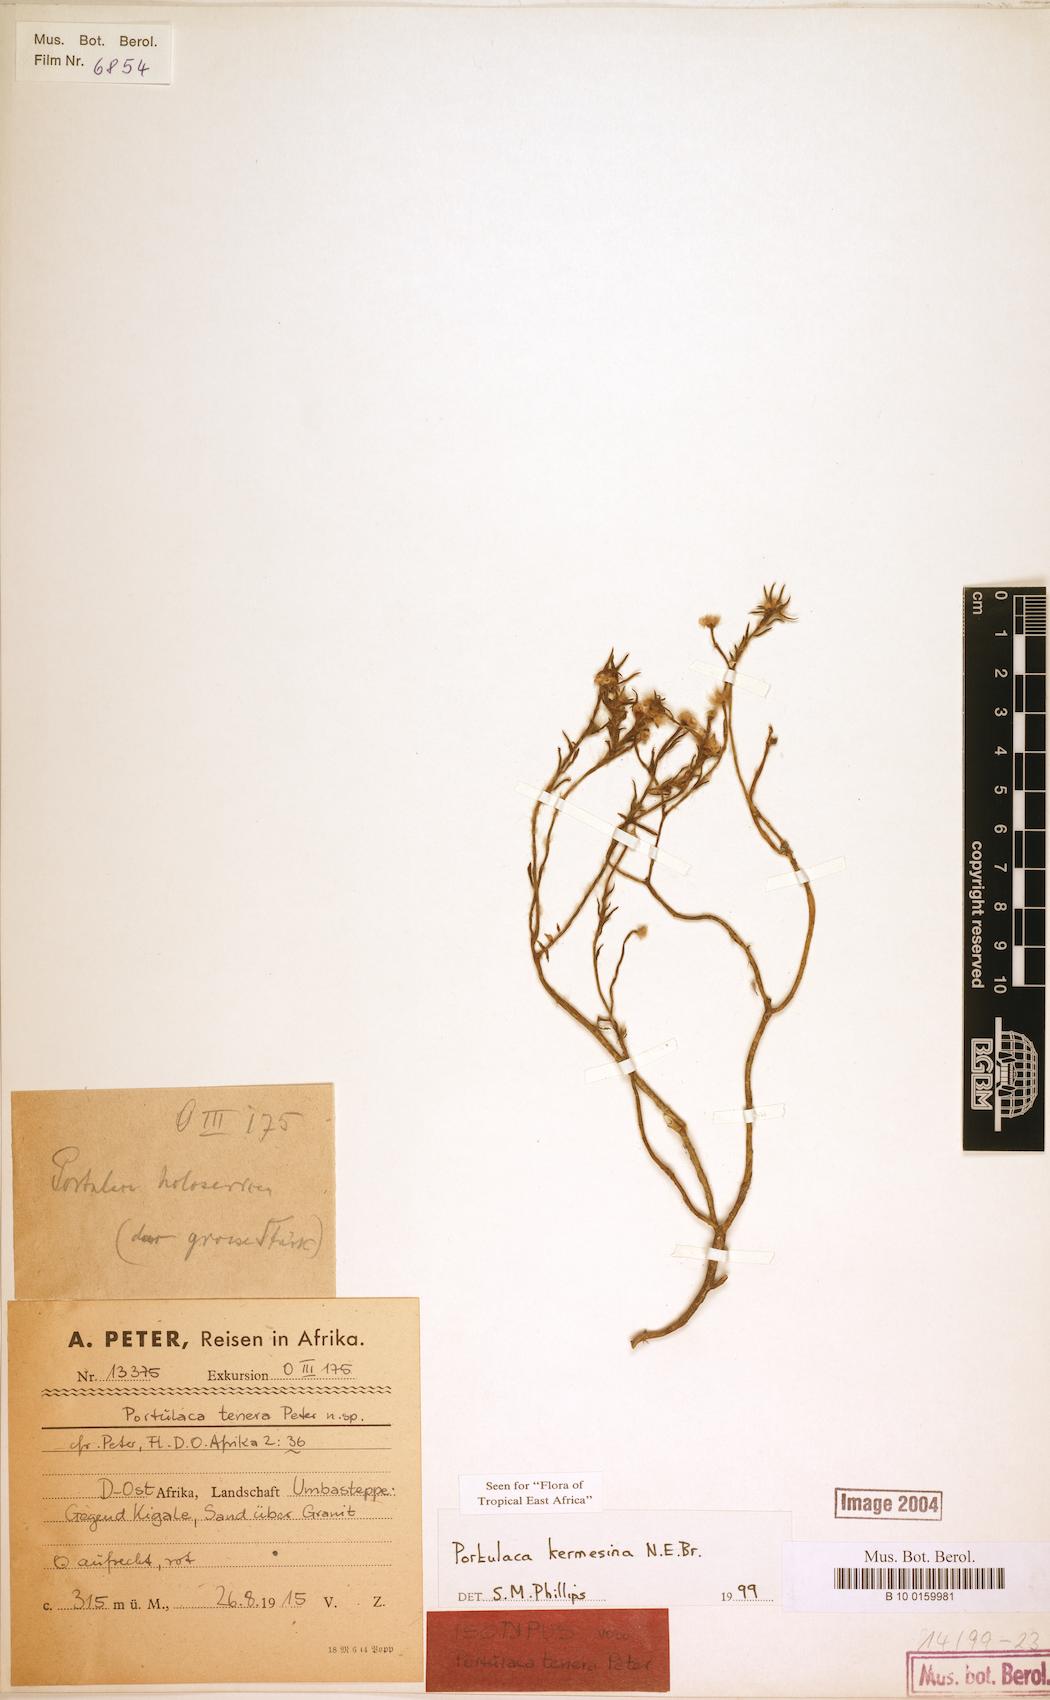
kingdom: Plantae
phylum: Tracheophyta
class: Magnoliopsida
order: Caryophyllales
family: Portulacaceae
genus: Portulaca
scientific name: Portulaca kermesina
